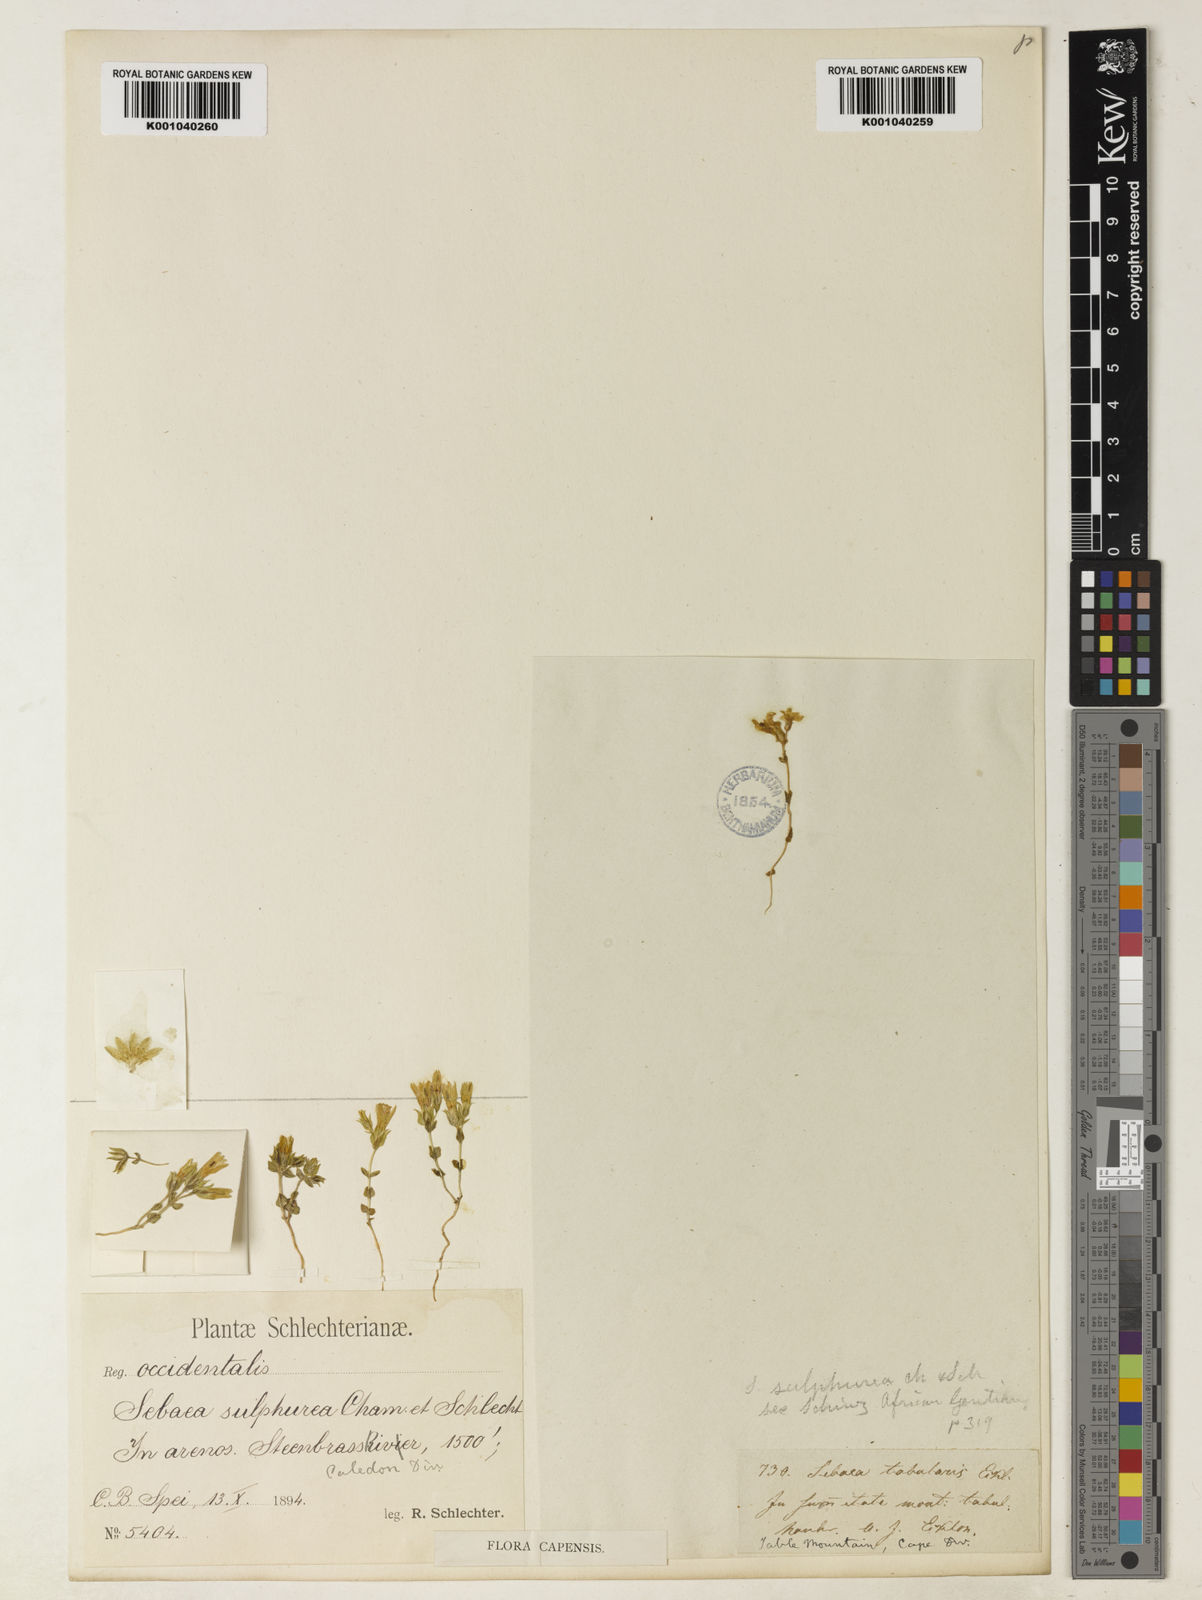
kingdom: Plantae
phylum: Tracheophyta
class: Magnoliopsida
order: Gentianales
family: Gentianaceae
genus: Sebaea
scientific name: Sebaea sulphurea
